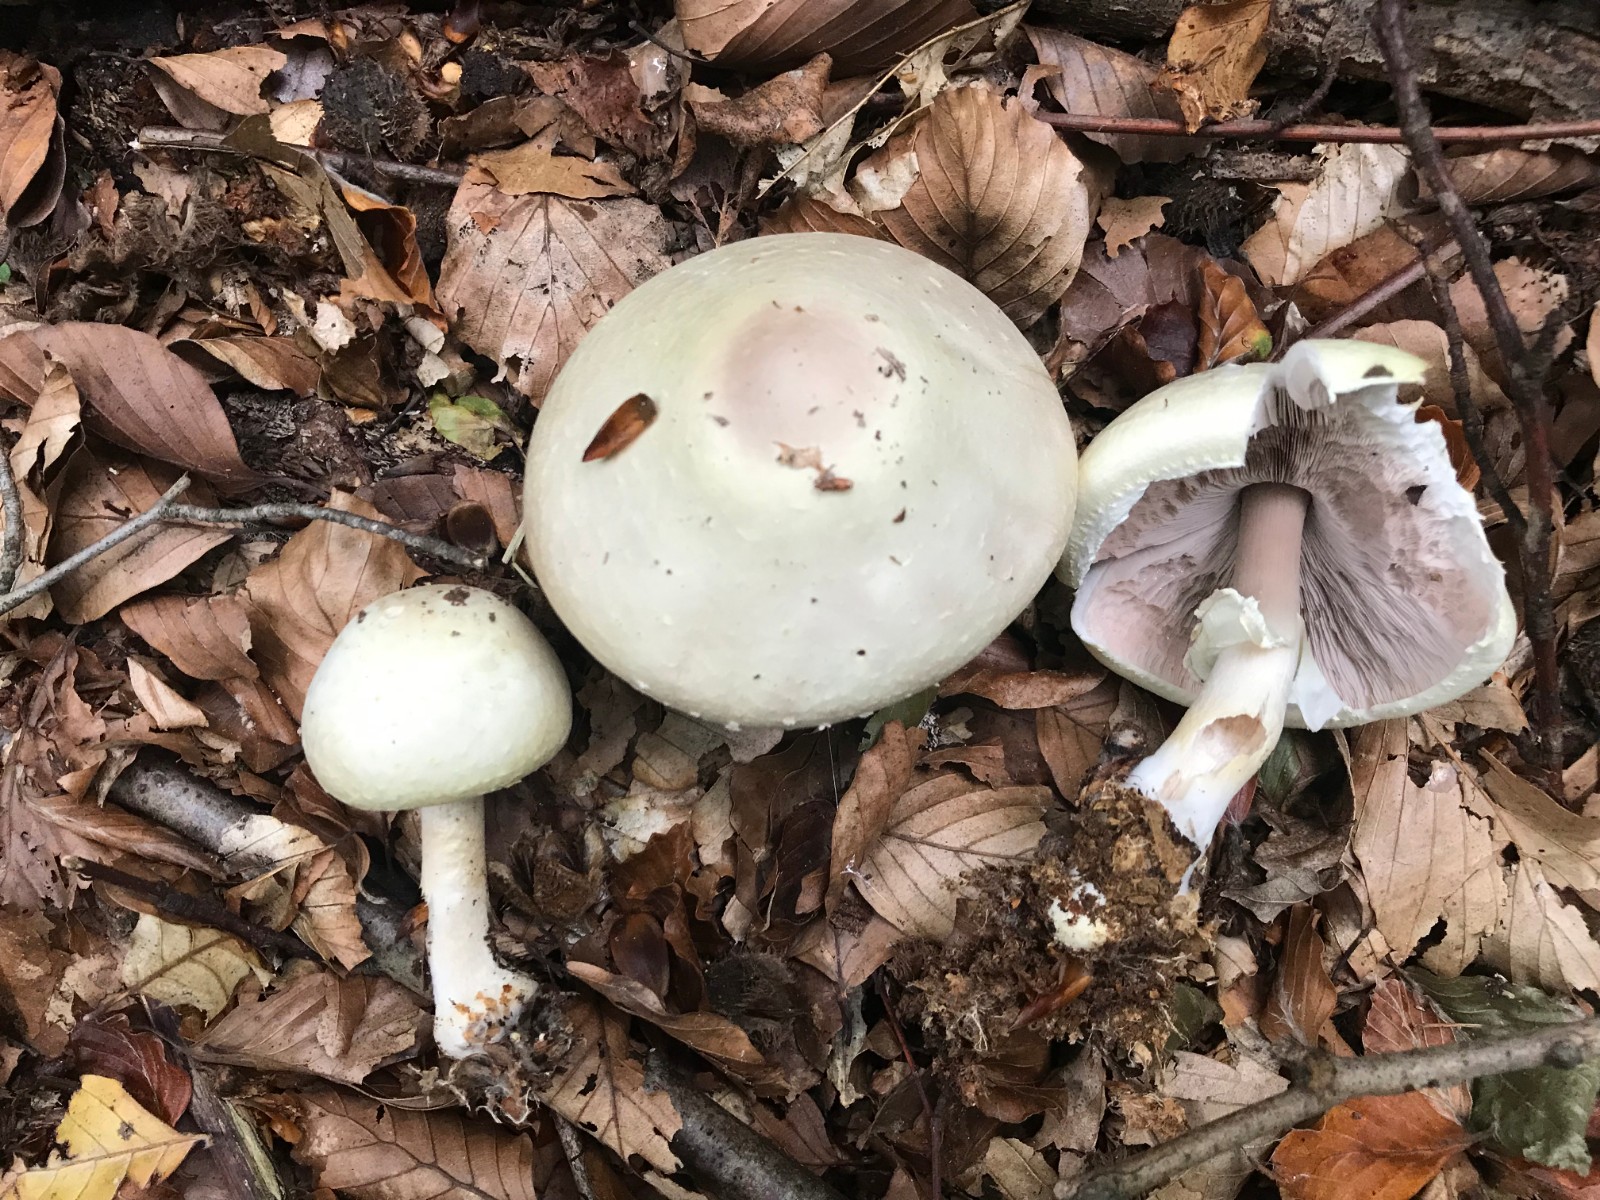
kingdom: Fungi
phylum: Basidiomycota
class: Agaricomycetes
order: Agaricales
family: Agaricaceae
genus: Agaricus
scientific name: Agaricus sylvicola
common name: gulhvid champignon
